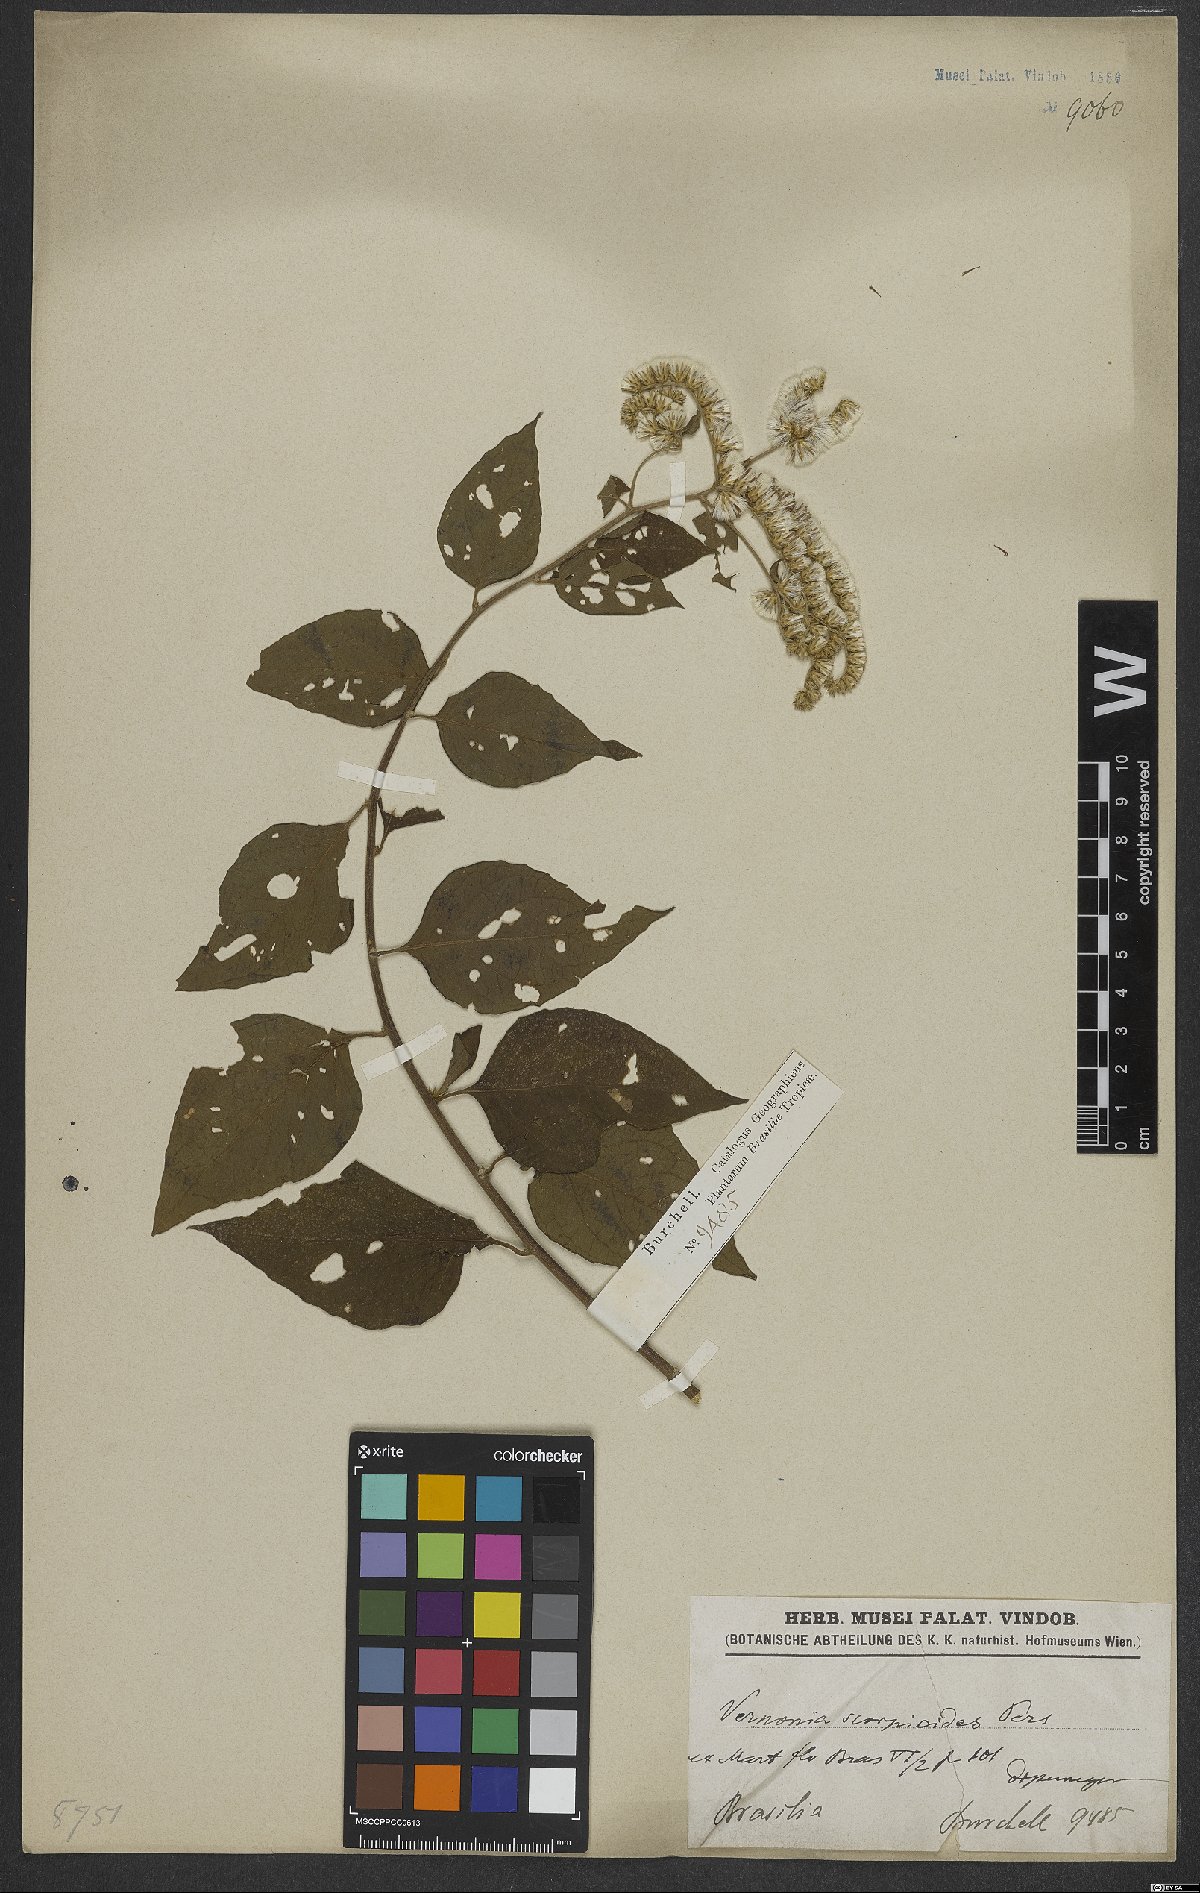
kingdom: Plantae
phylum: Tracheophyta
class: Magnoliopsida
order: Asterales
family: Asteraceae
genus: Cyrtocymura
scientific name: Cyrtocymura scorpioides
